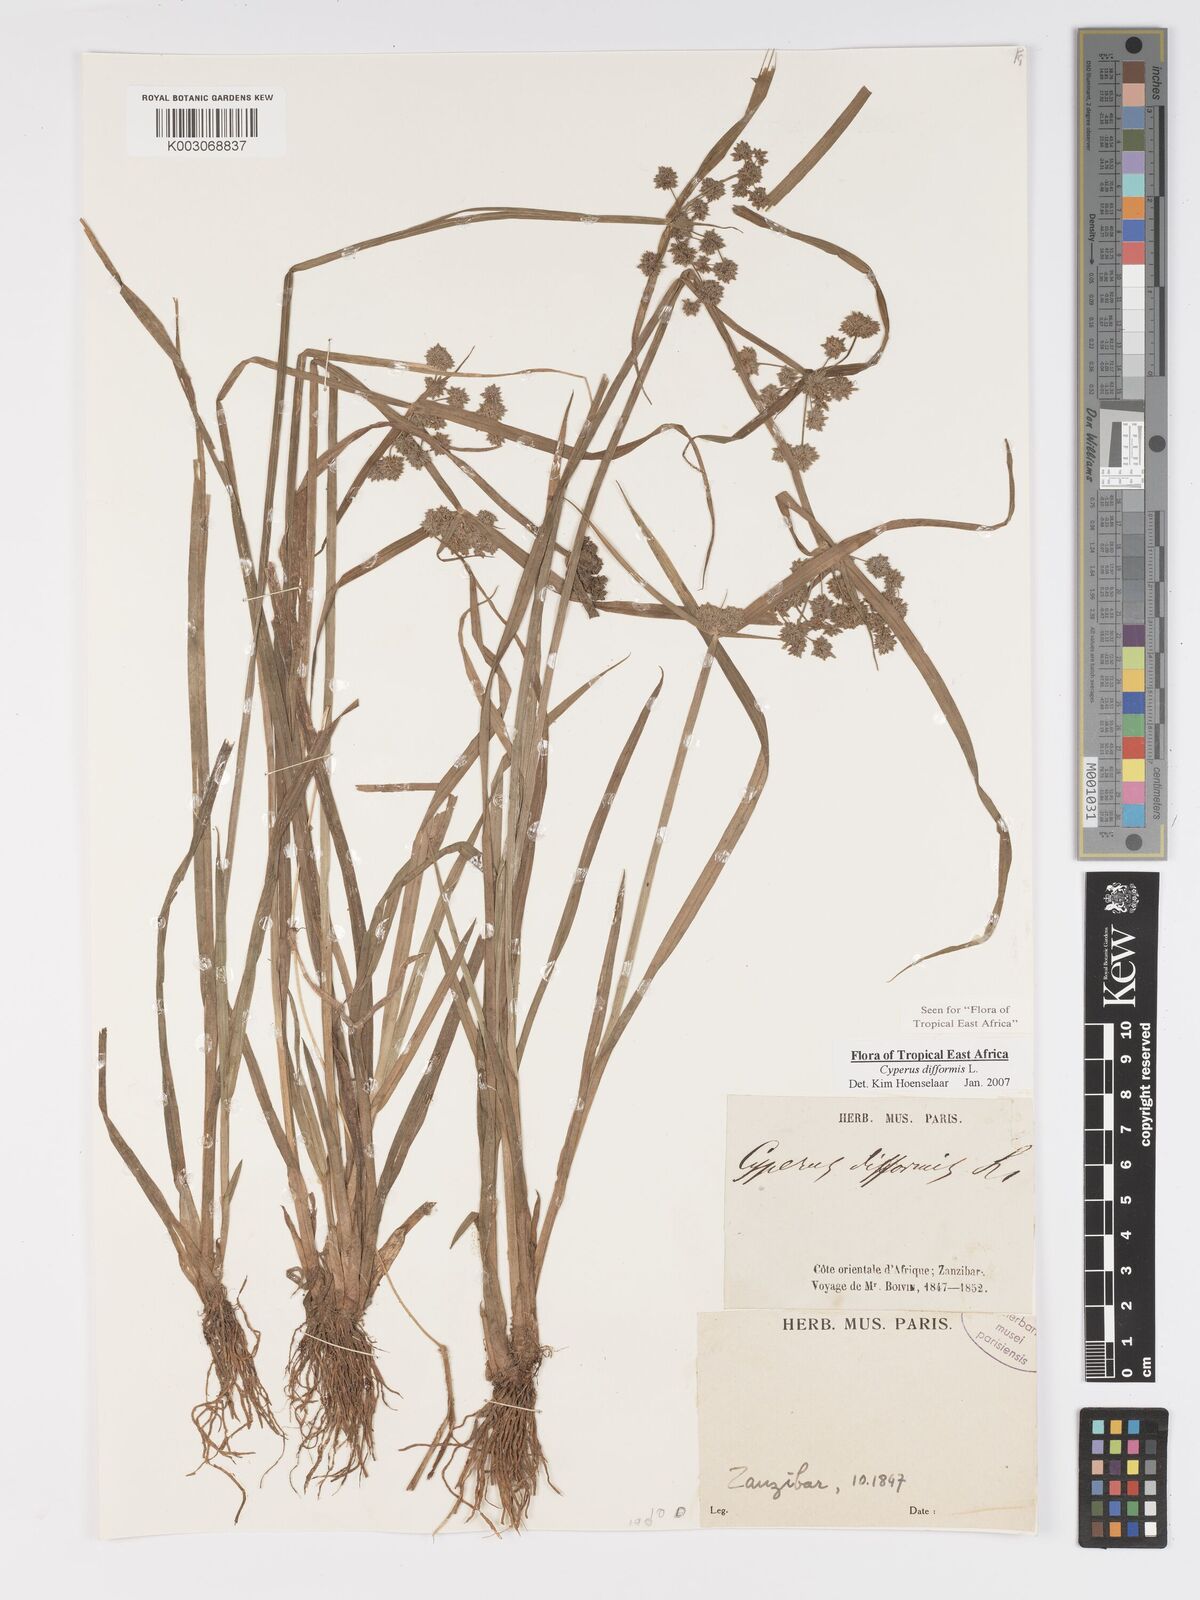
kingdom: Plantae
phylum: Tracheophyta
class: Liliopsida
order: Poales
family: Cyperaceae
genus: Cyperus
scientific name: Cyperus difformis
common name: Variable flatsedge
